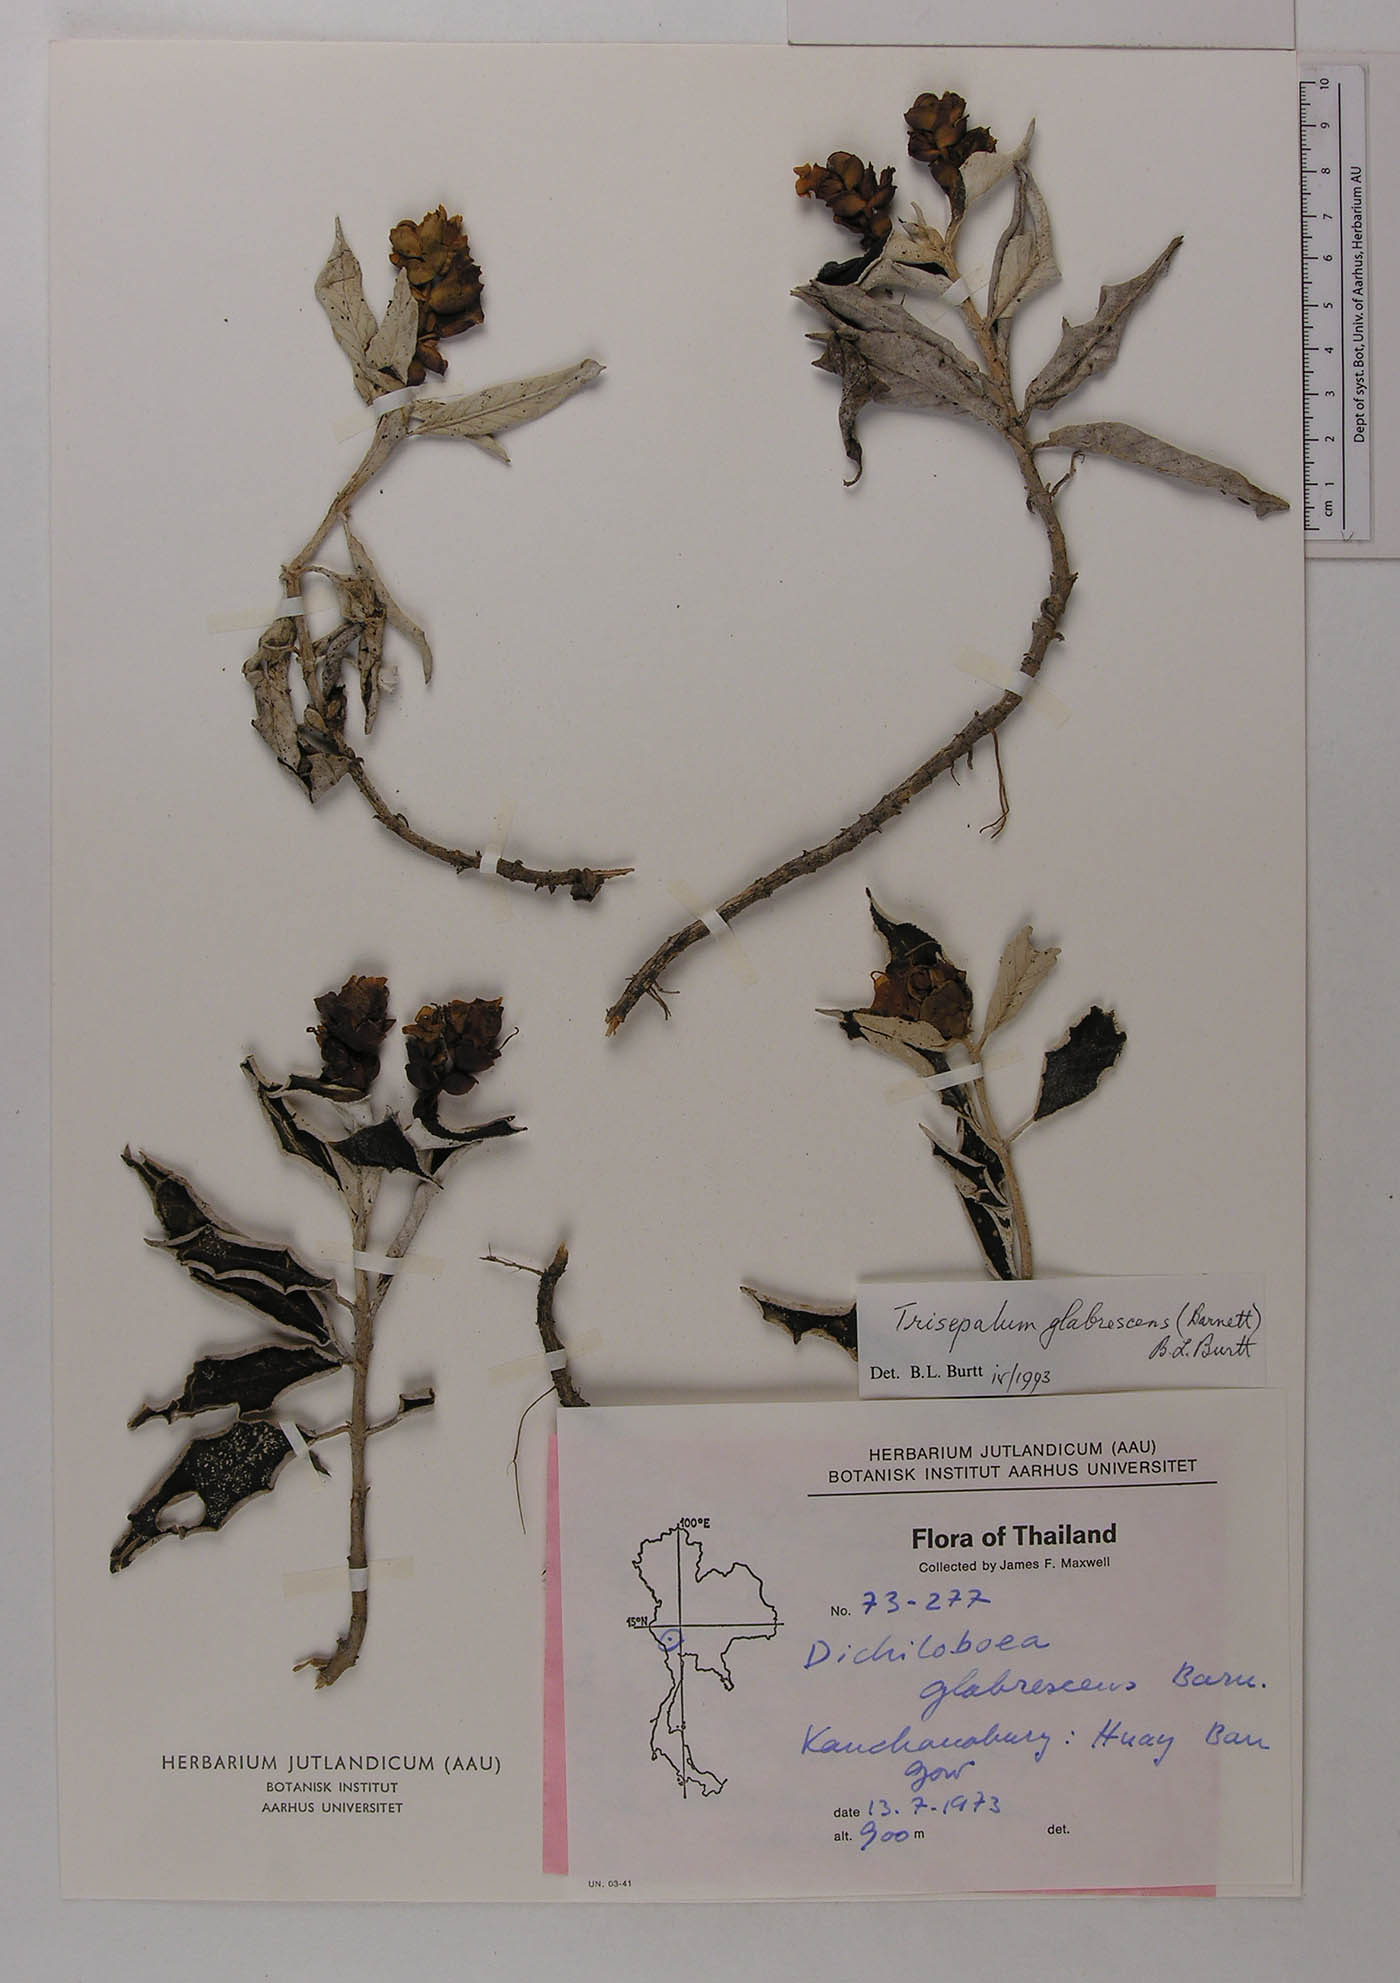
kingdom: Plantae
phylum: Tracheophyta
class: Magnoliopsida
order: Lamiales
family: Gesneriaceae
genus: Paraboea
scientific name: Paraboea glabrescens
